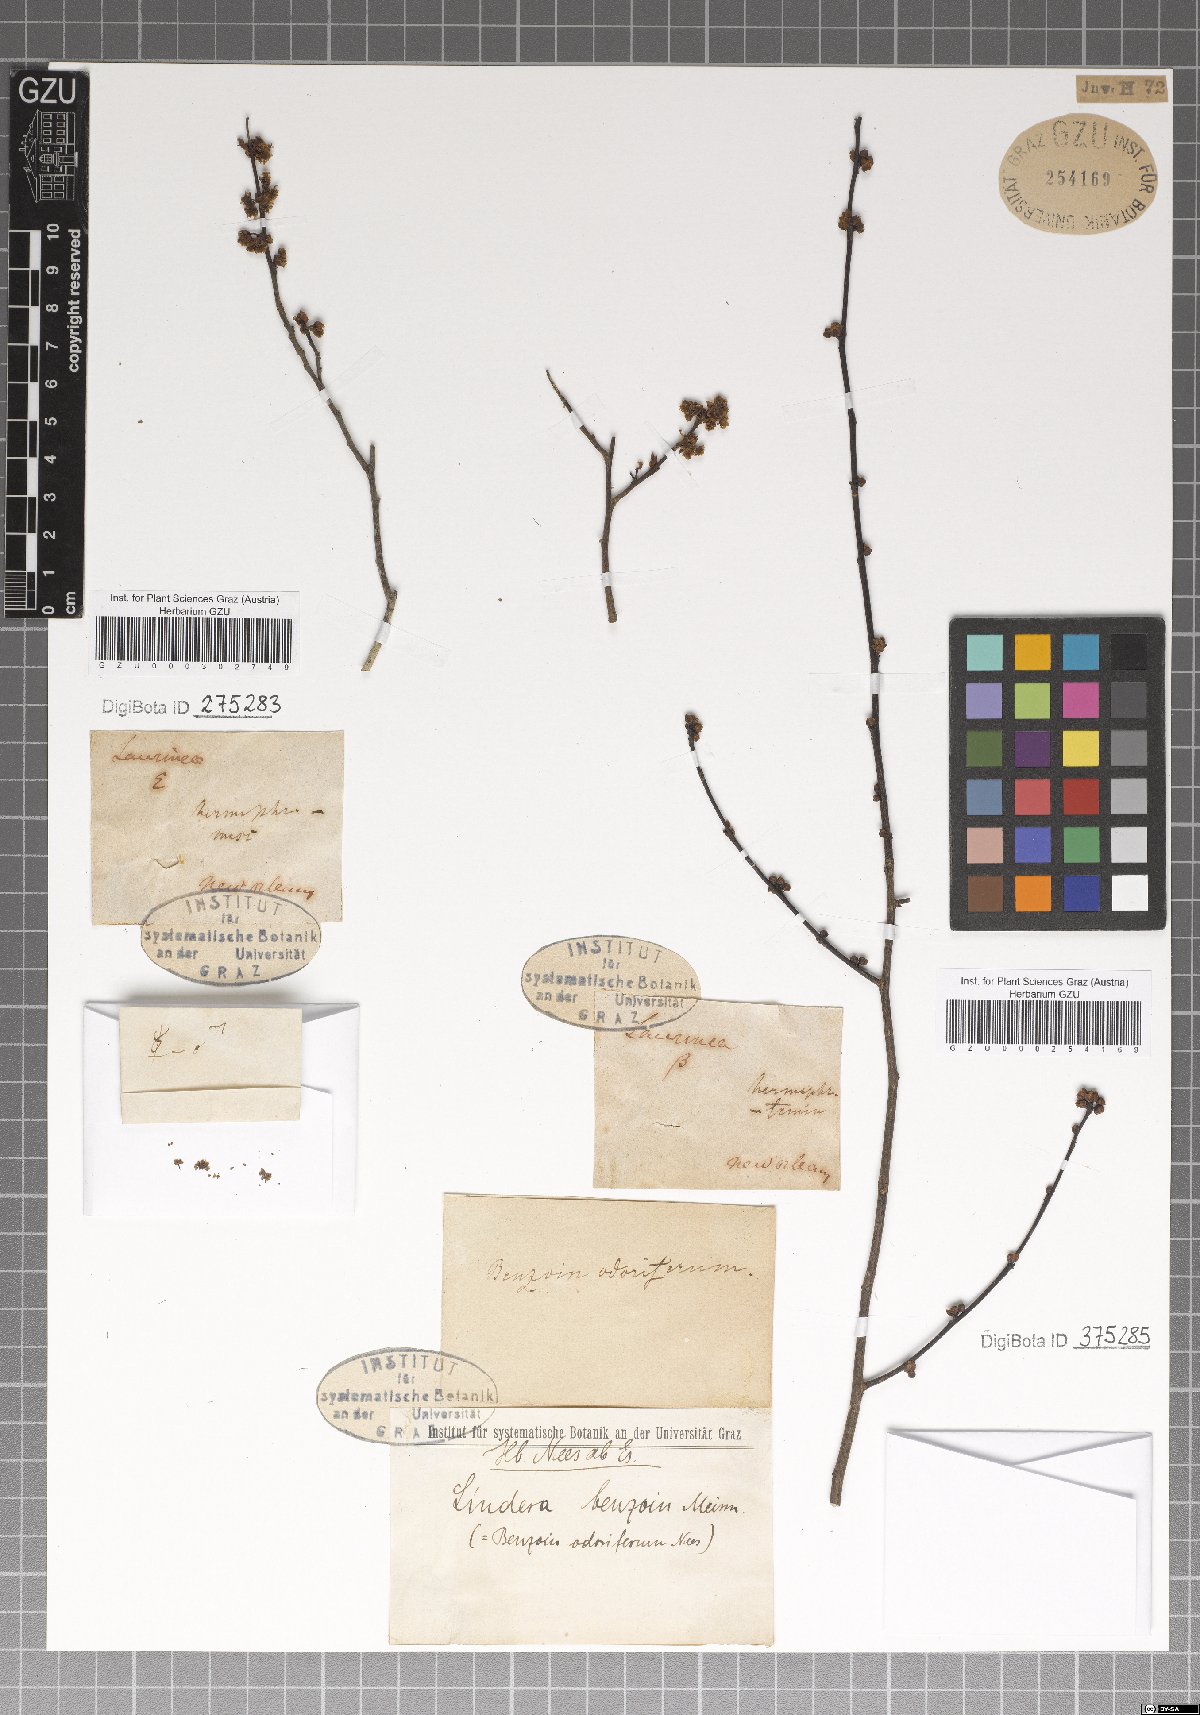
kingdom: Plantae
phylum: Tracheophyta
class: Magnoliopsida
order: Laurales
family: Lauraceae
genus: Lindera
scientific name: Lindera benzoin
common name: Spicebush
